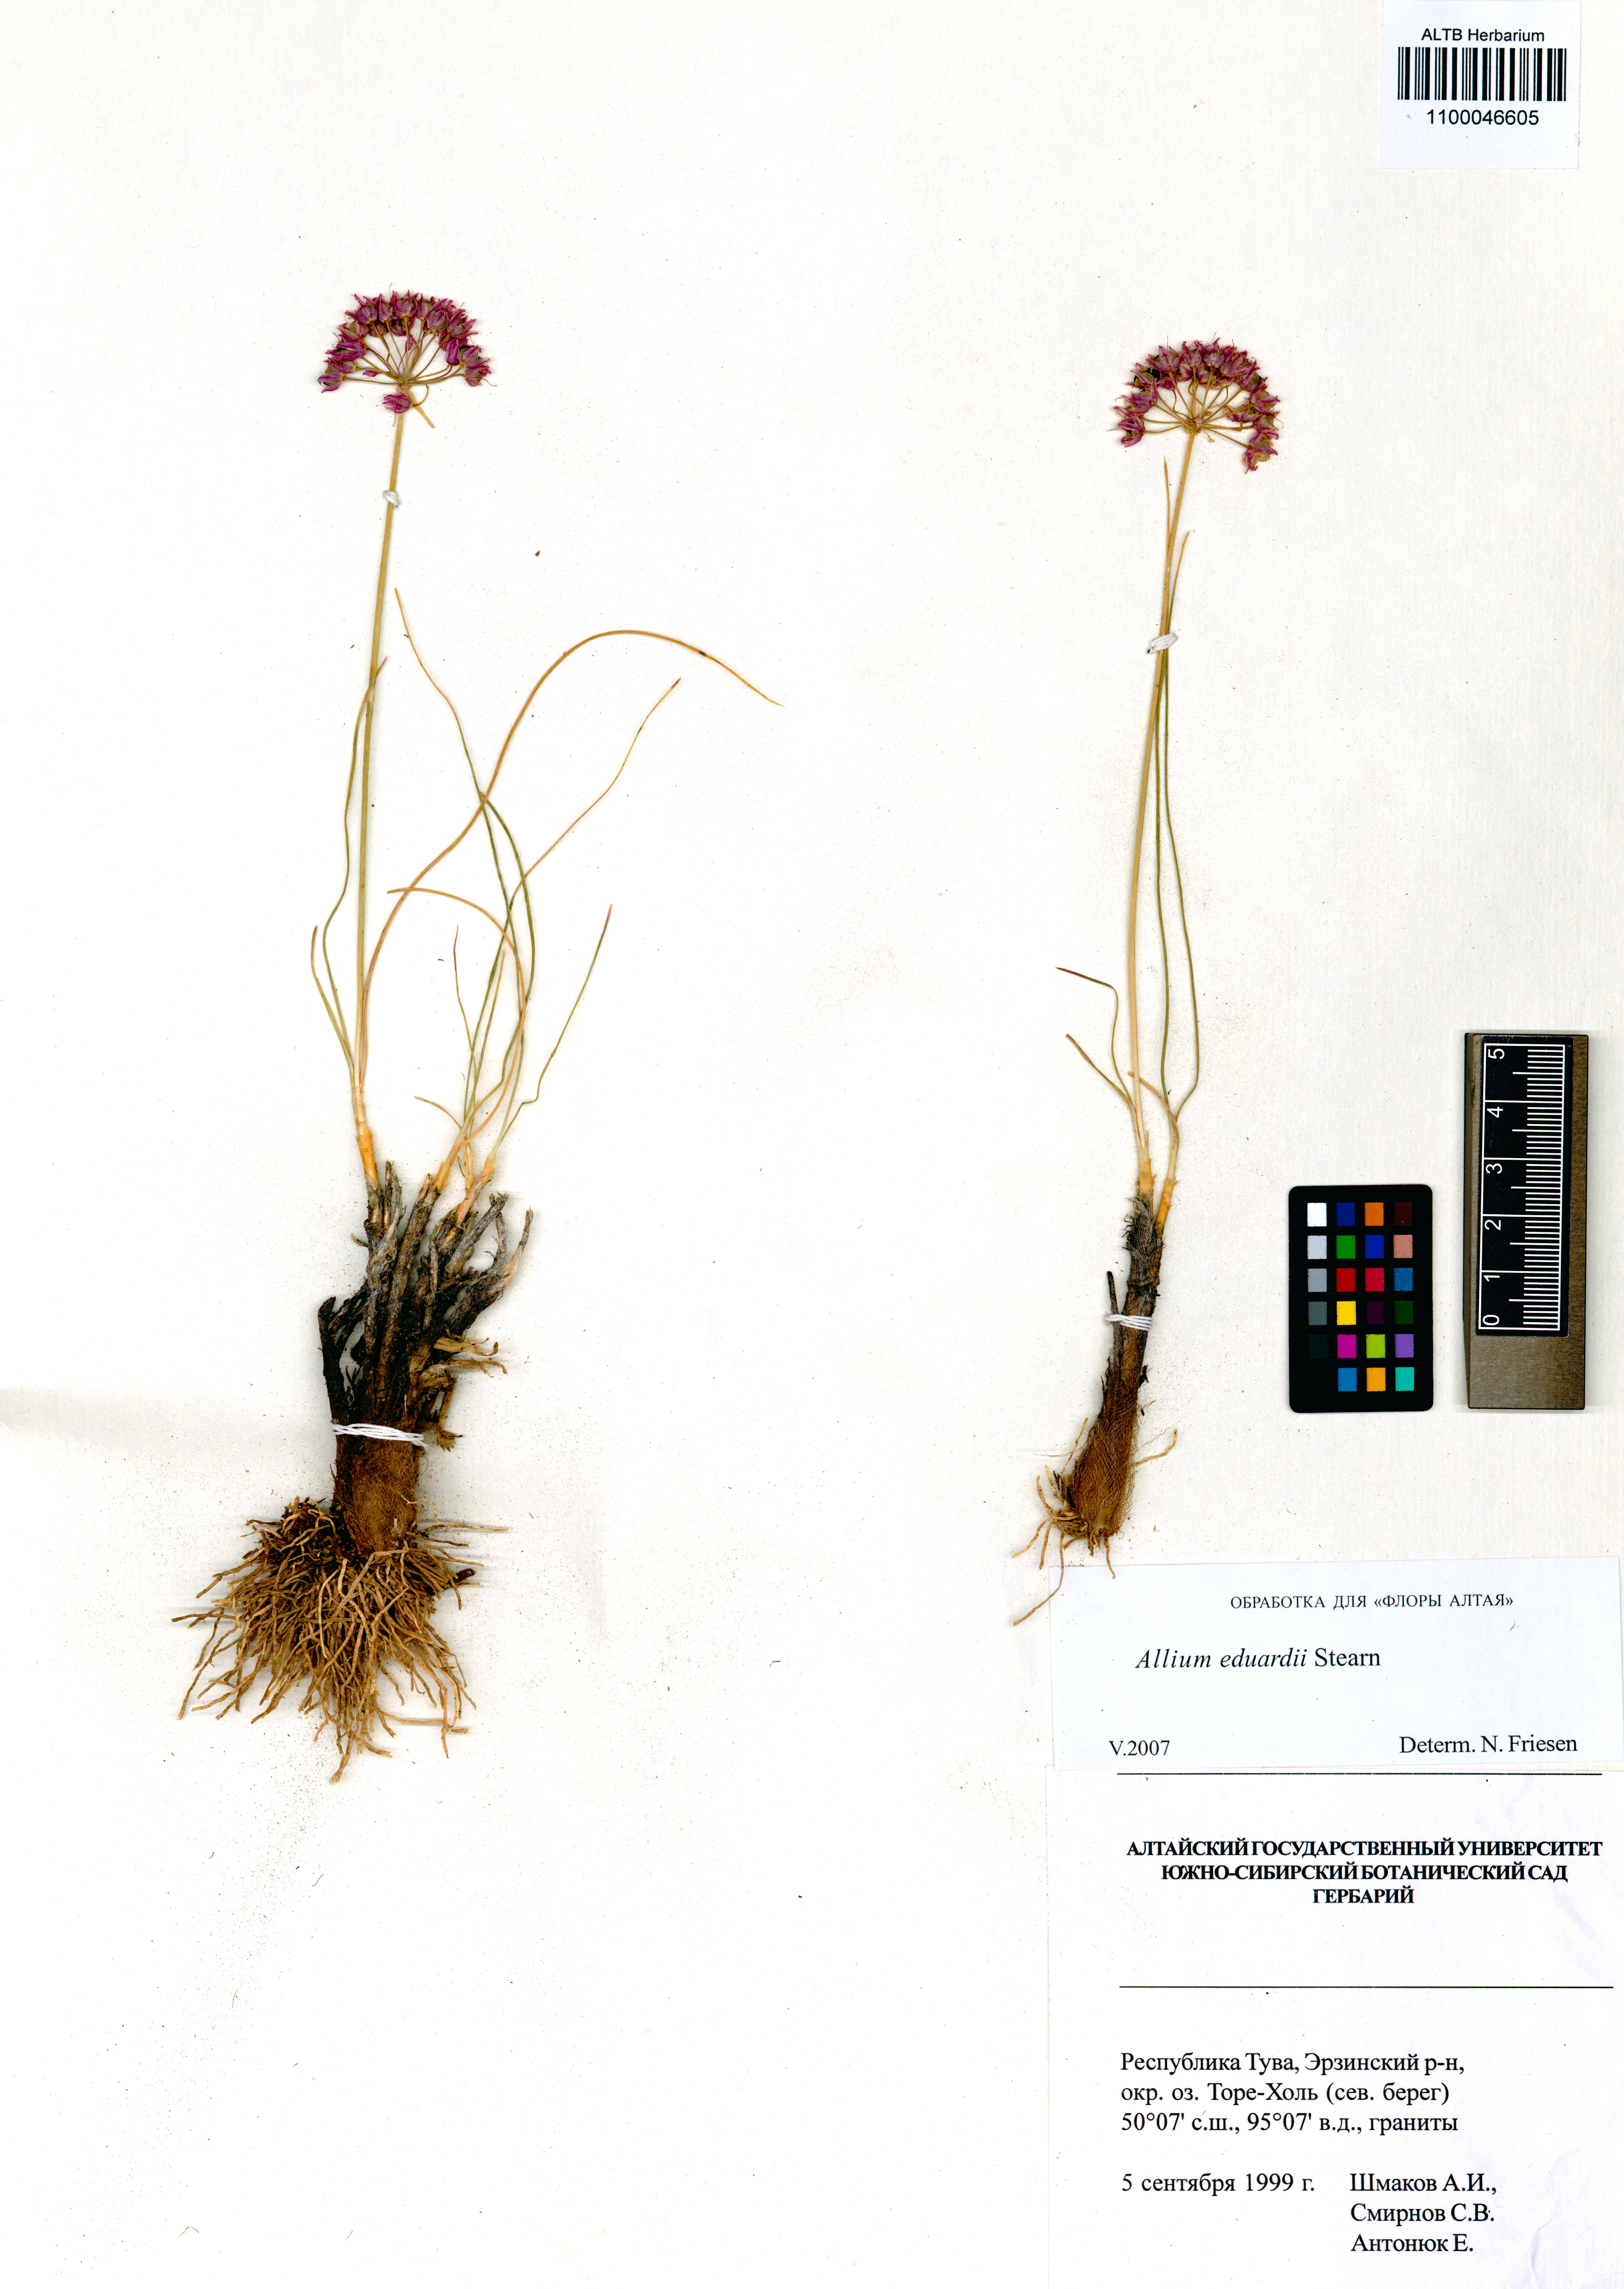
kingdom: Plantae
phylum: Tracheophyta
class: Liliopsida
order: Asparagales
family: Amaryllidaceae
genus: Allium
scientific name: Allium eduardi
